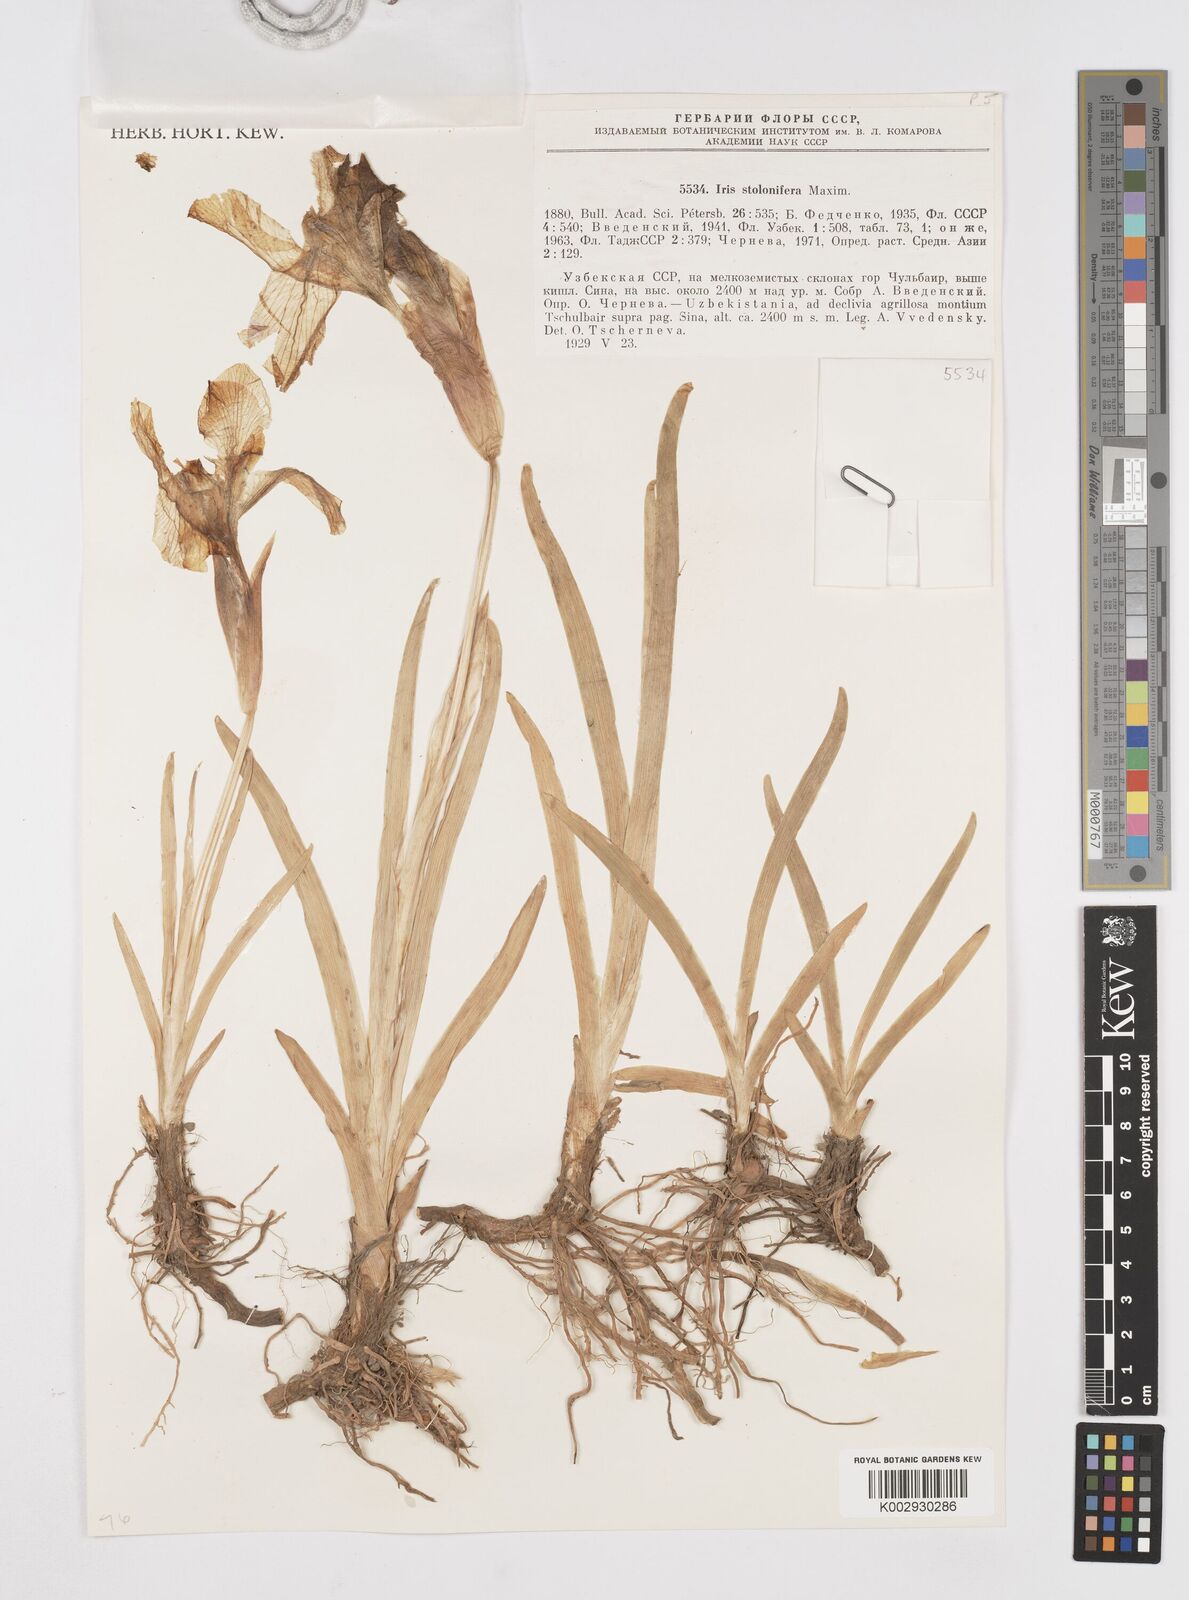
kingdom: Plantae
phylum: Tracheophyta
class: Liliopsida
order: Asparagales
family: Iridaceae
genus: Iris
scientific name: Iris stolonifera
